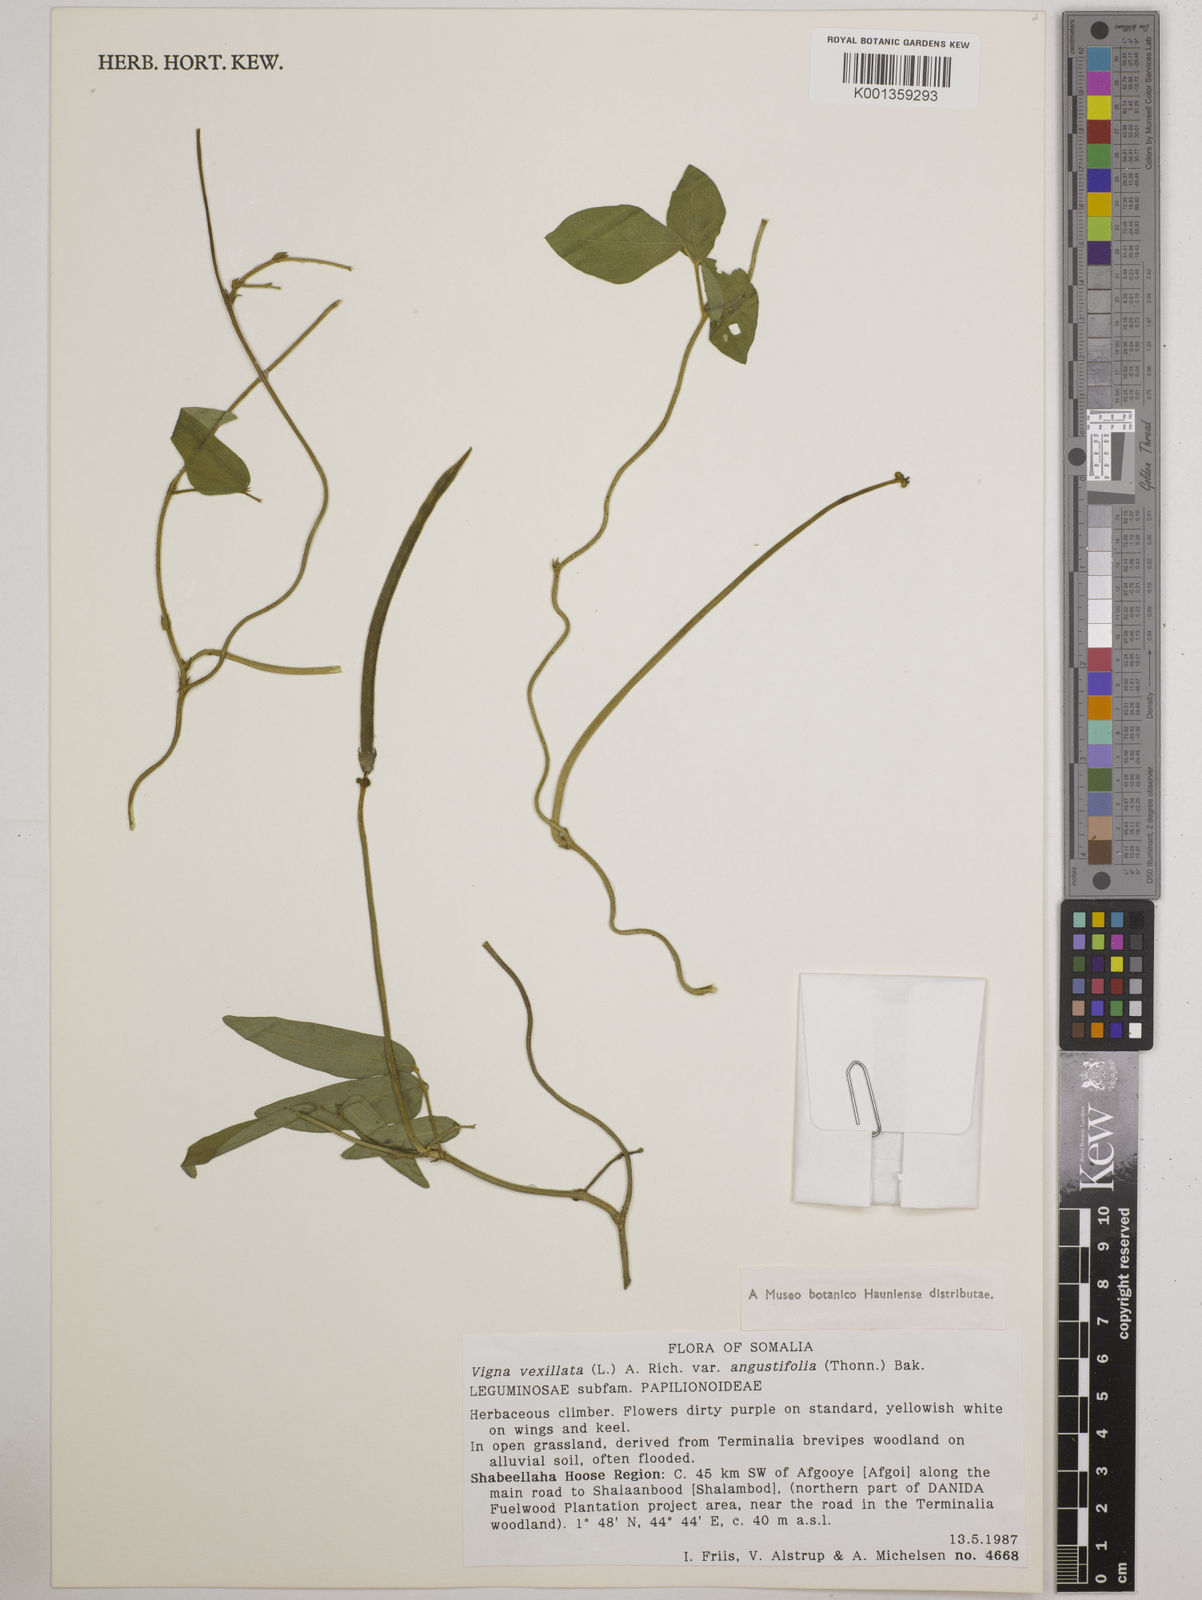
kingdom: Plantae
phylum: Tracheophyta
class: Magnoliopsida
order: Fabales
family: Fabaceae
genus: Vigna
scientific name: Vigna vexillata
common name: Zombi pea
